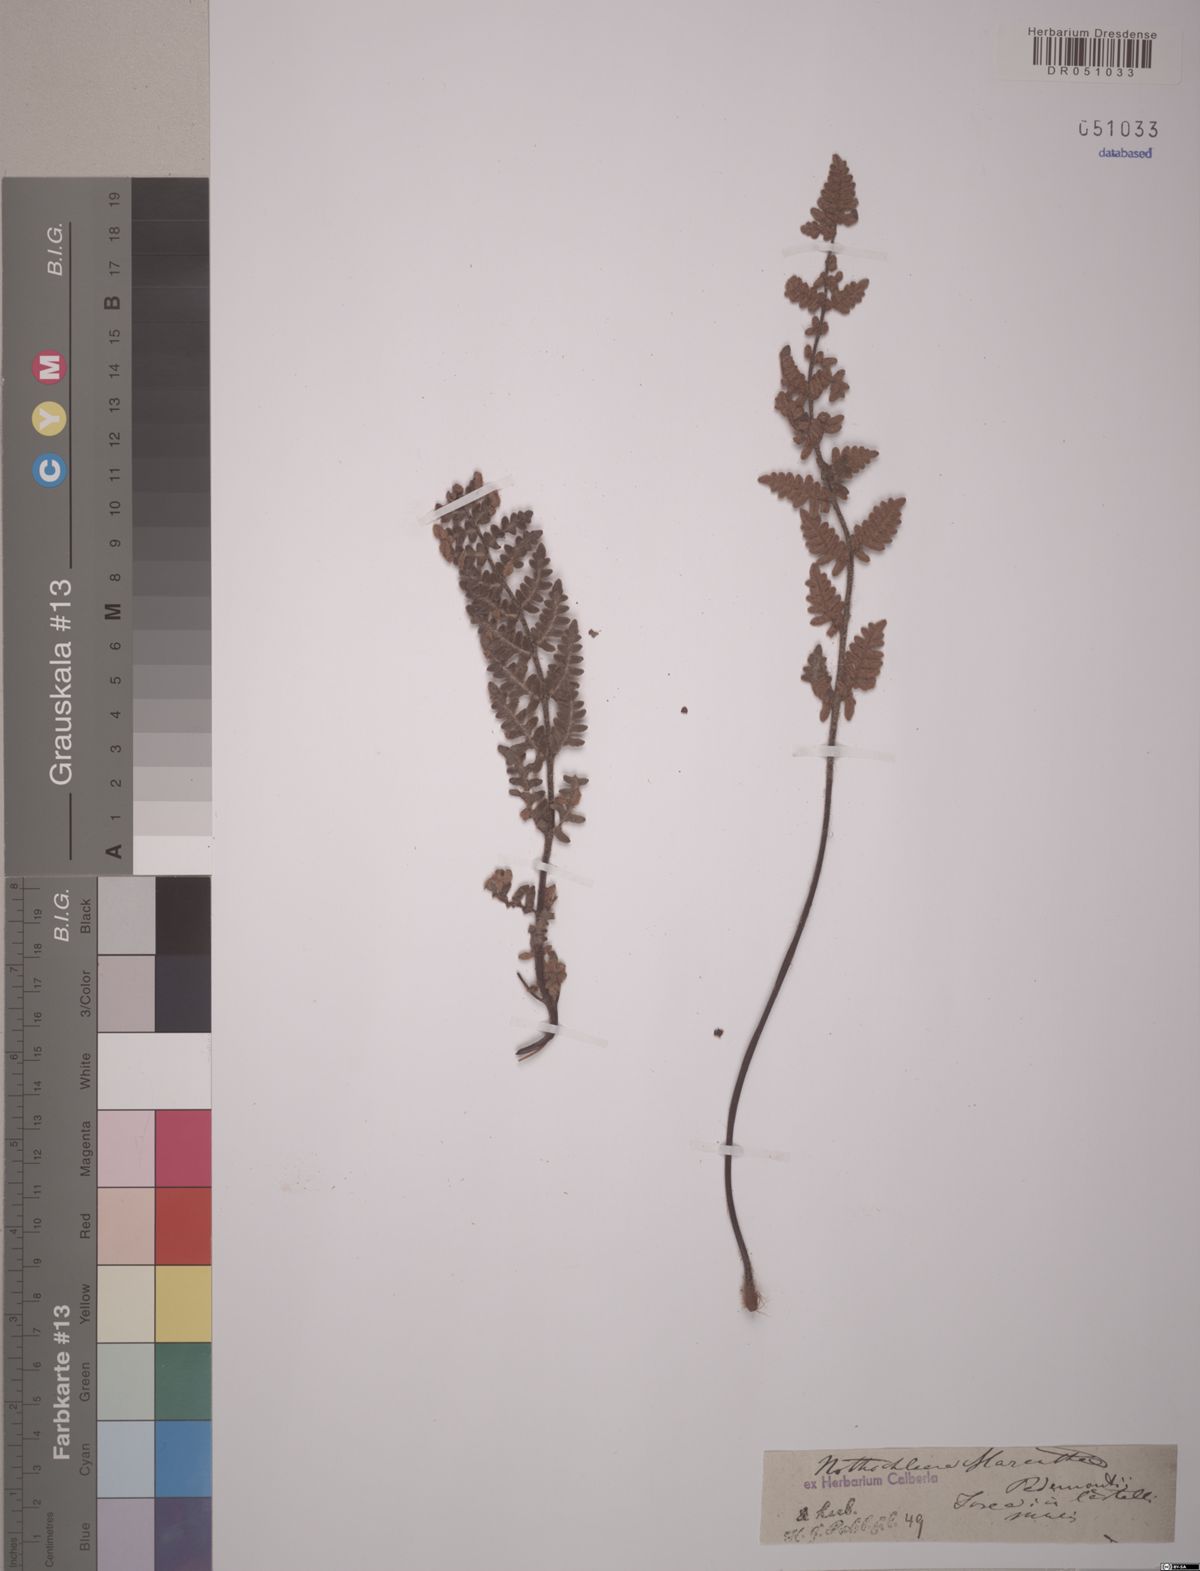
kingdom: Plantae
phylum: Tracheophyta
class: Polypodiopsida
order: Polypodiales
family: Pteridaceae
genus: Paragymnopteris
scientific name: Paragymnopteris marantae
